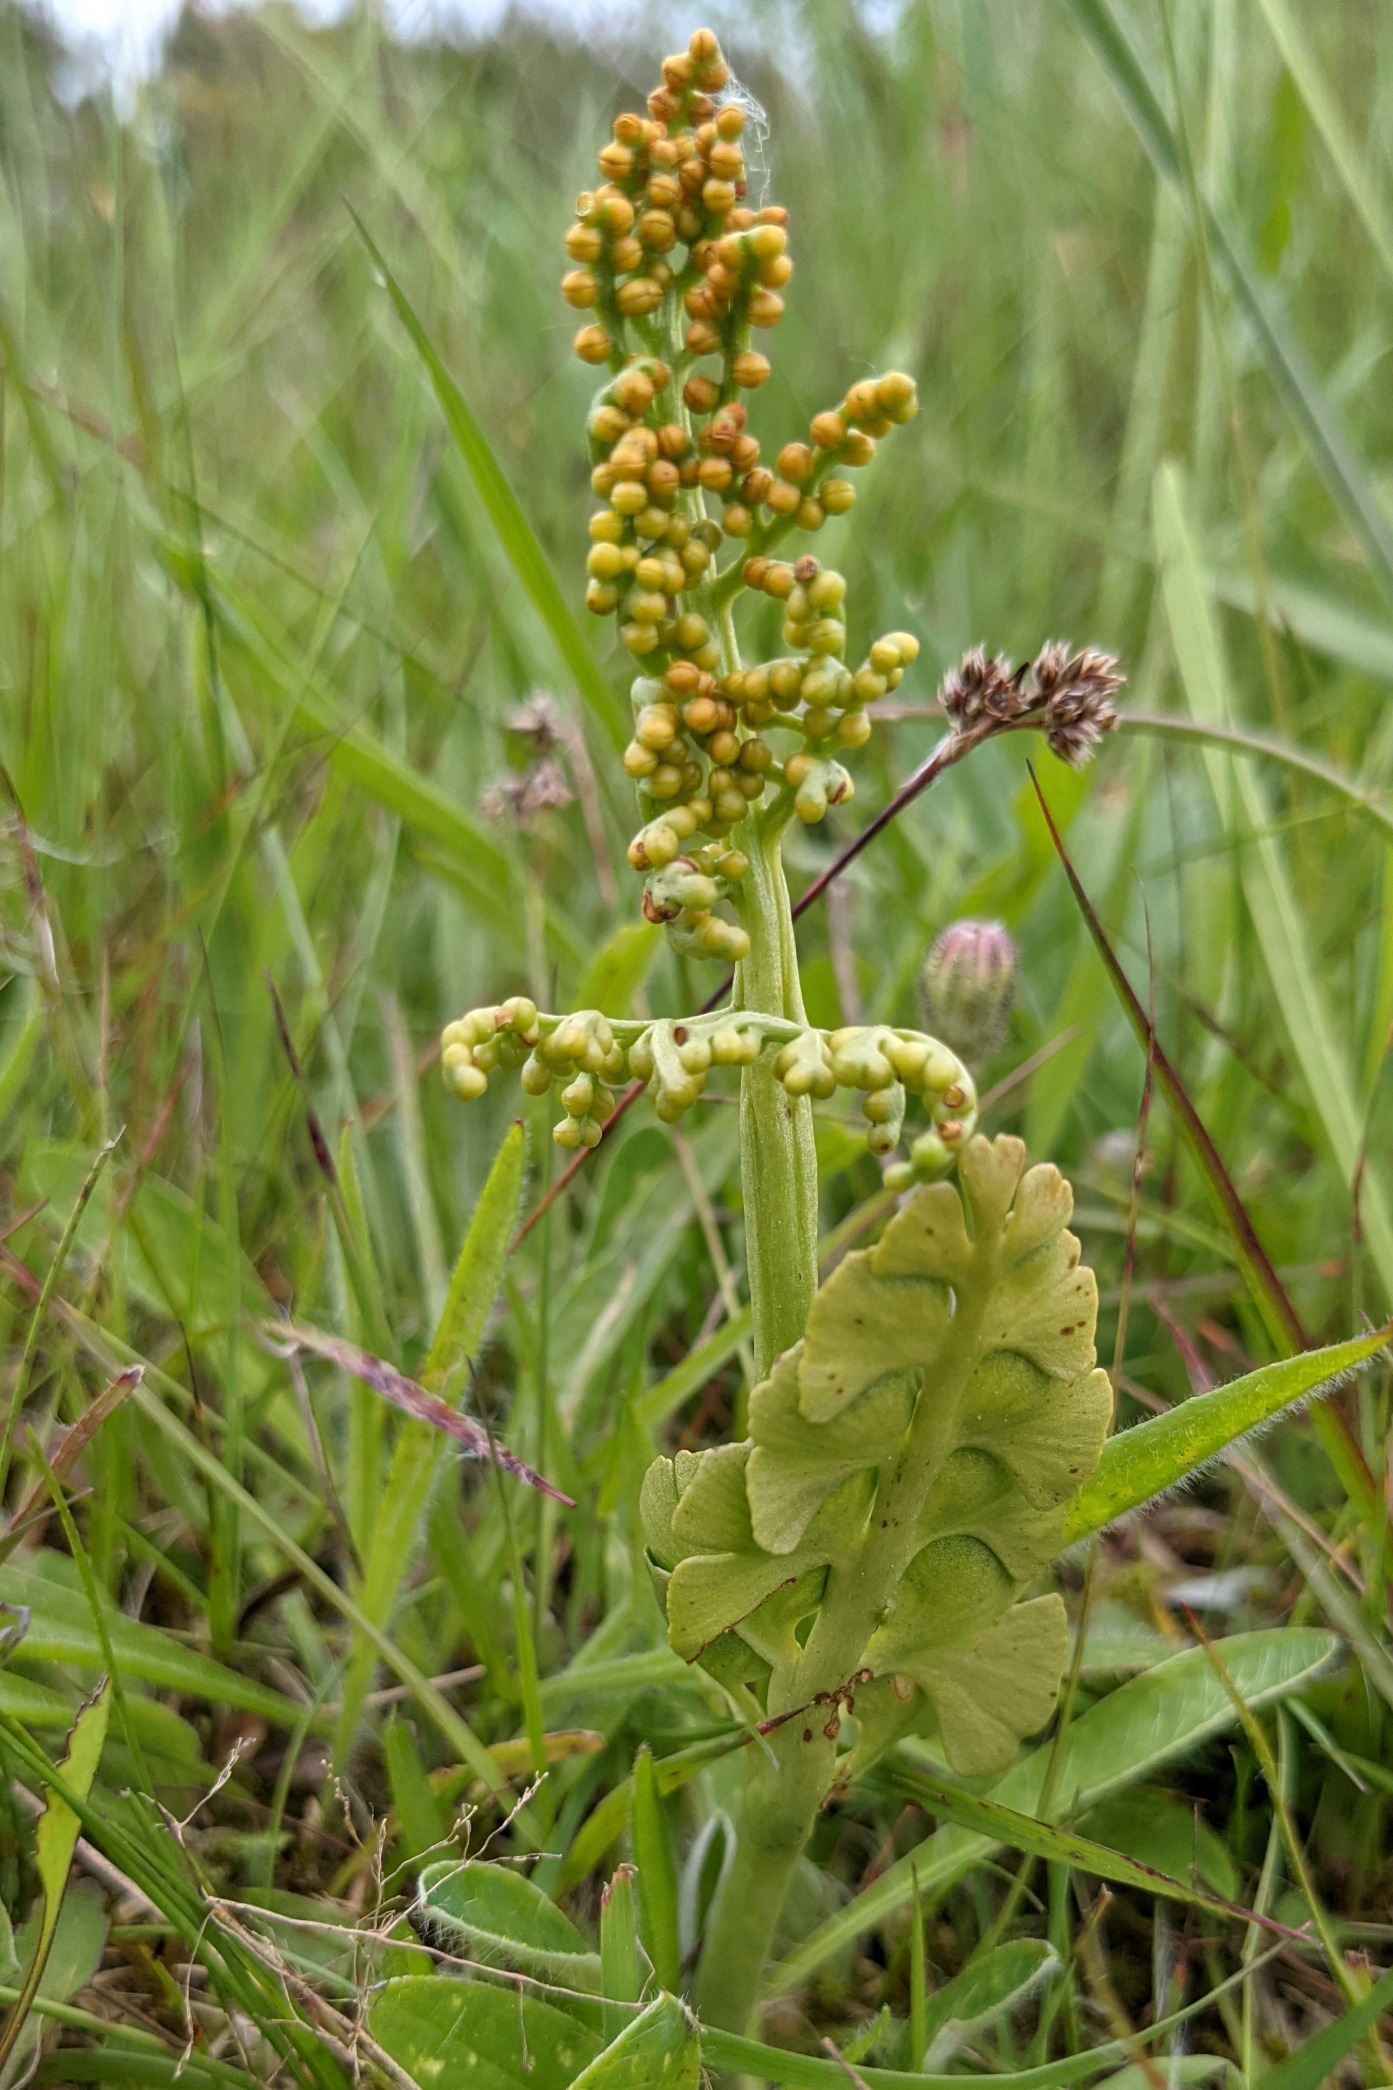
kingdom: Plantae
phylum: Tracheophyta
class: Polypodiopsida
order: Ophioglossales
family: Ophioglossaceae
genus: Botrychium
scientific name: Botrychium lunaria
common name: Almindelig månerude
